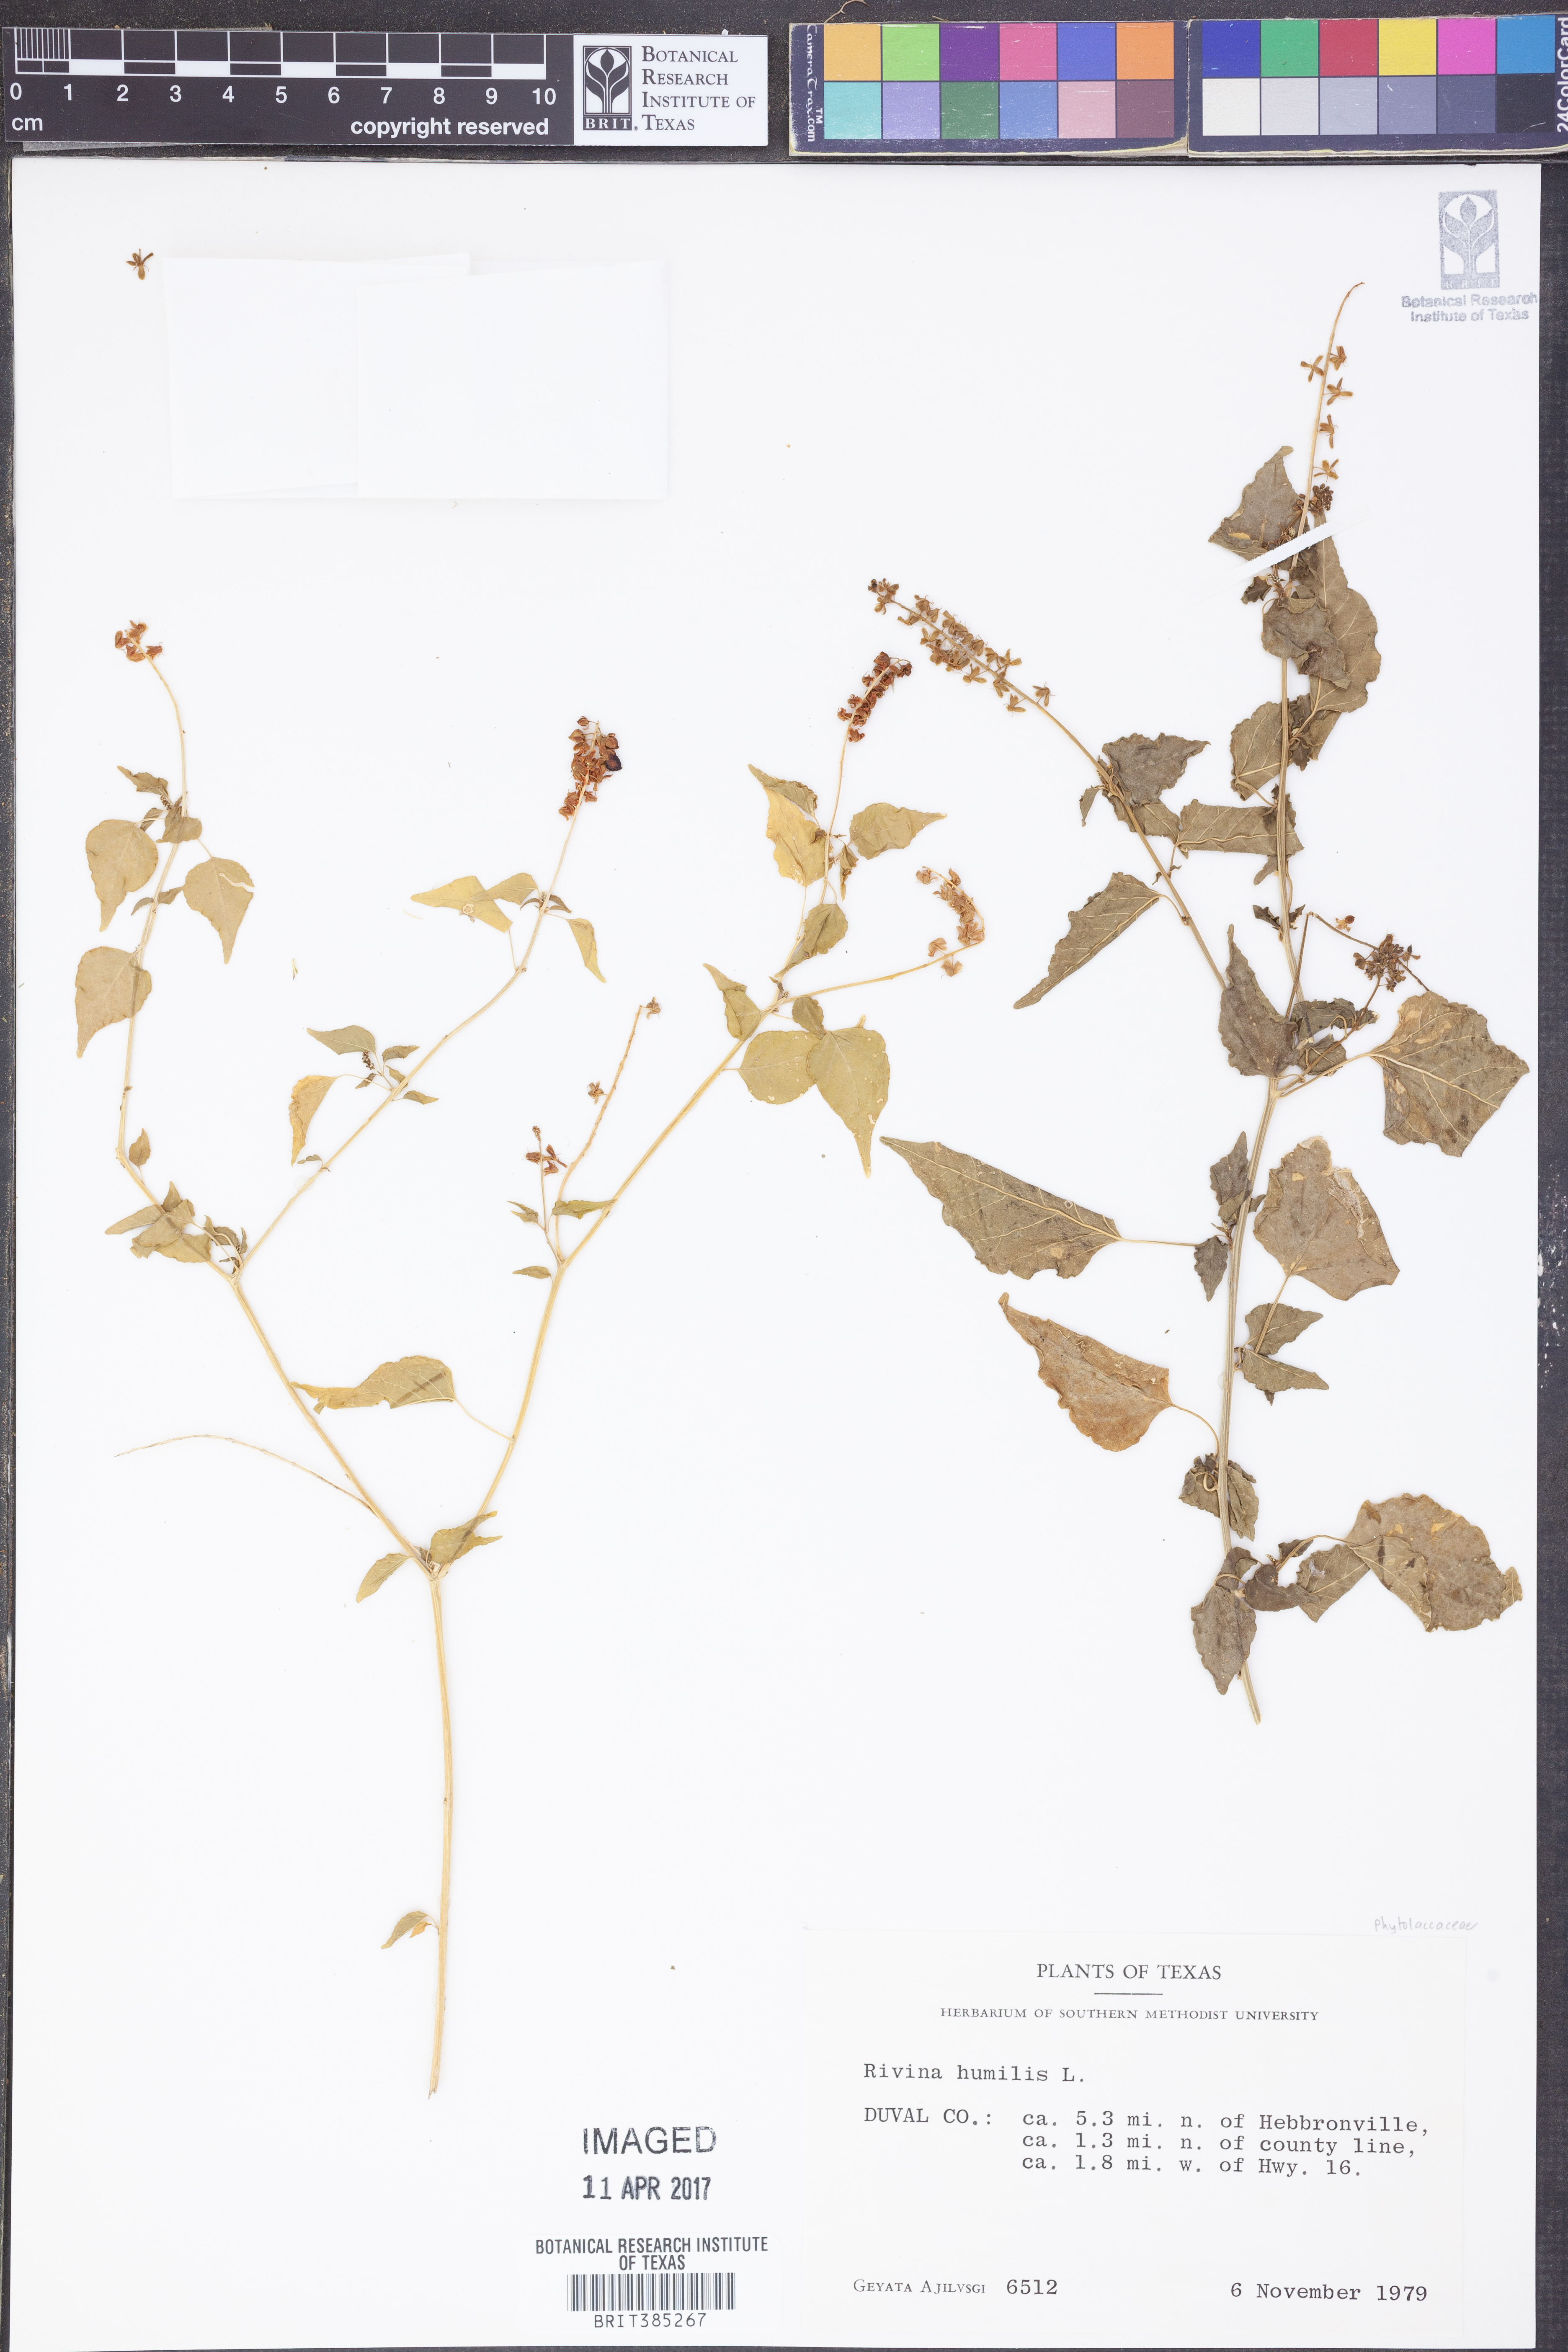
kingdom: Plantae
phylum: Tracheophyta
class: Magnoliopsida
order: Caryophyllales
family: Phytolaccaceae
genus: Rivina
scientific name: Rivina humilis
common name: Rougeplant
